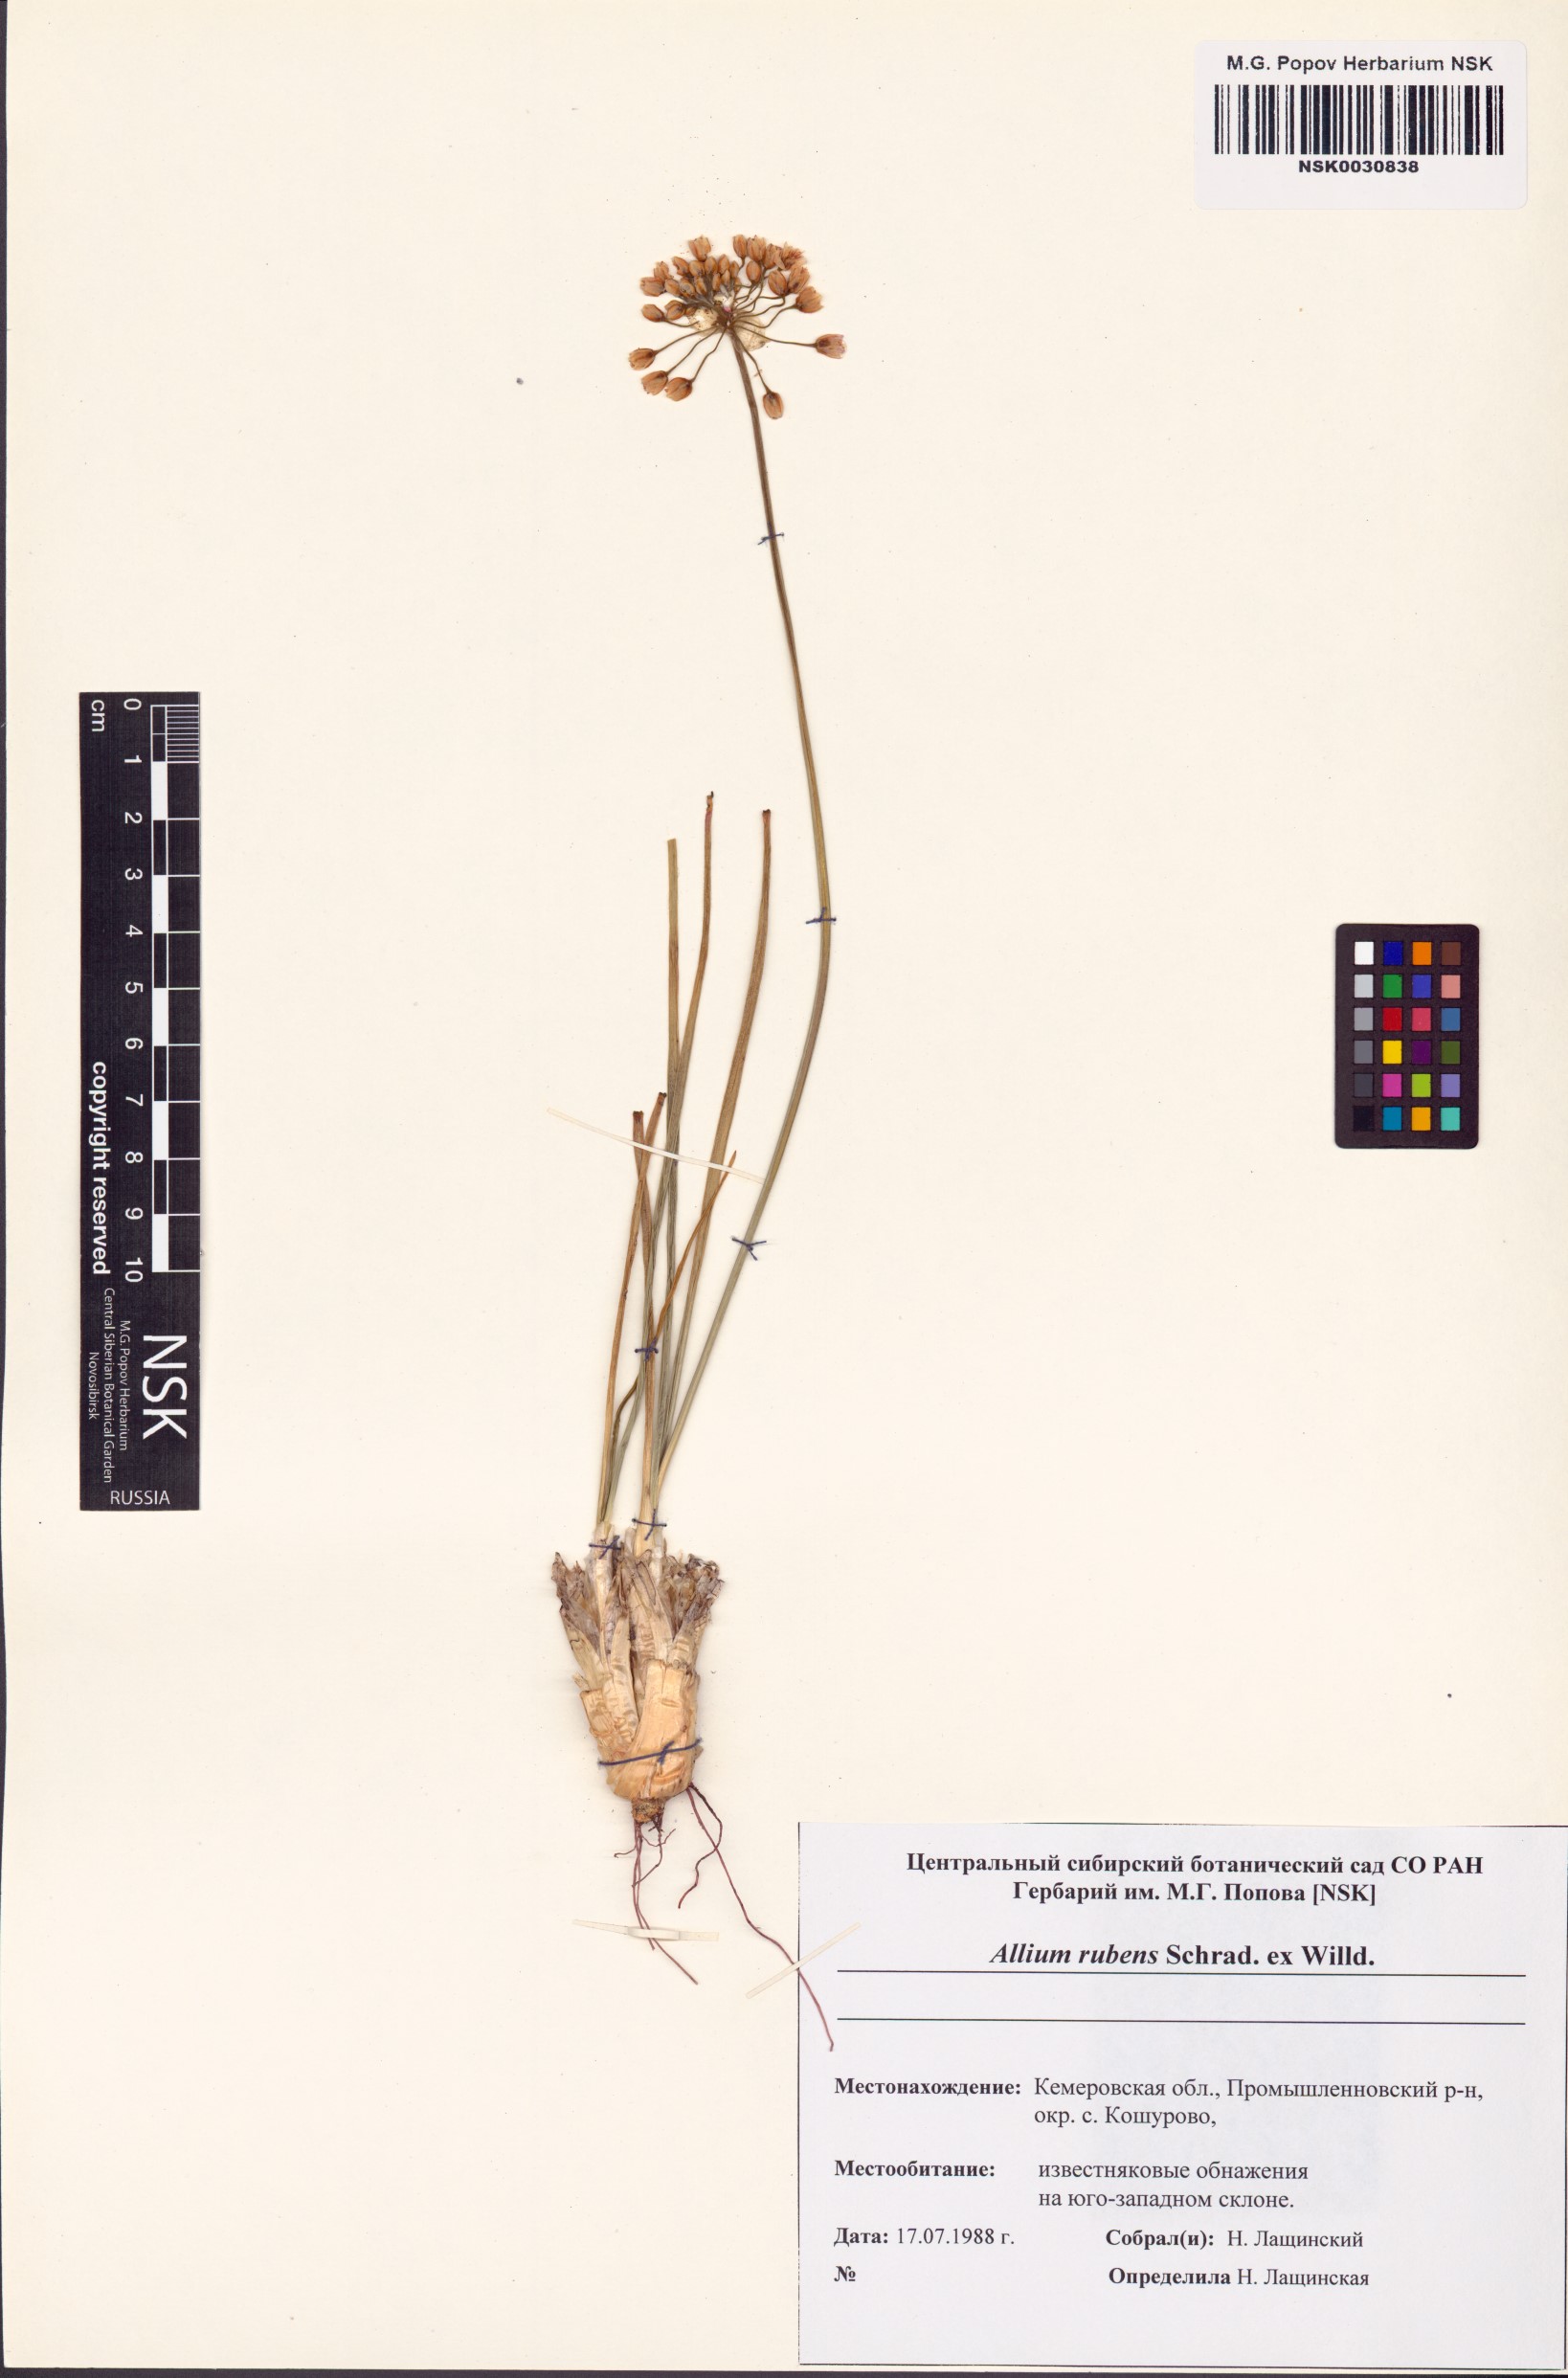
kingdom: Plantae
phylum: Tracheophyta
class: Liliopsida
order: Asparagales
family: Amaryllidaceae
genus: Allium
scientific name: Allium rubens
